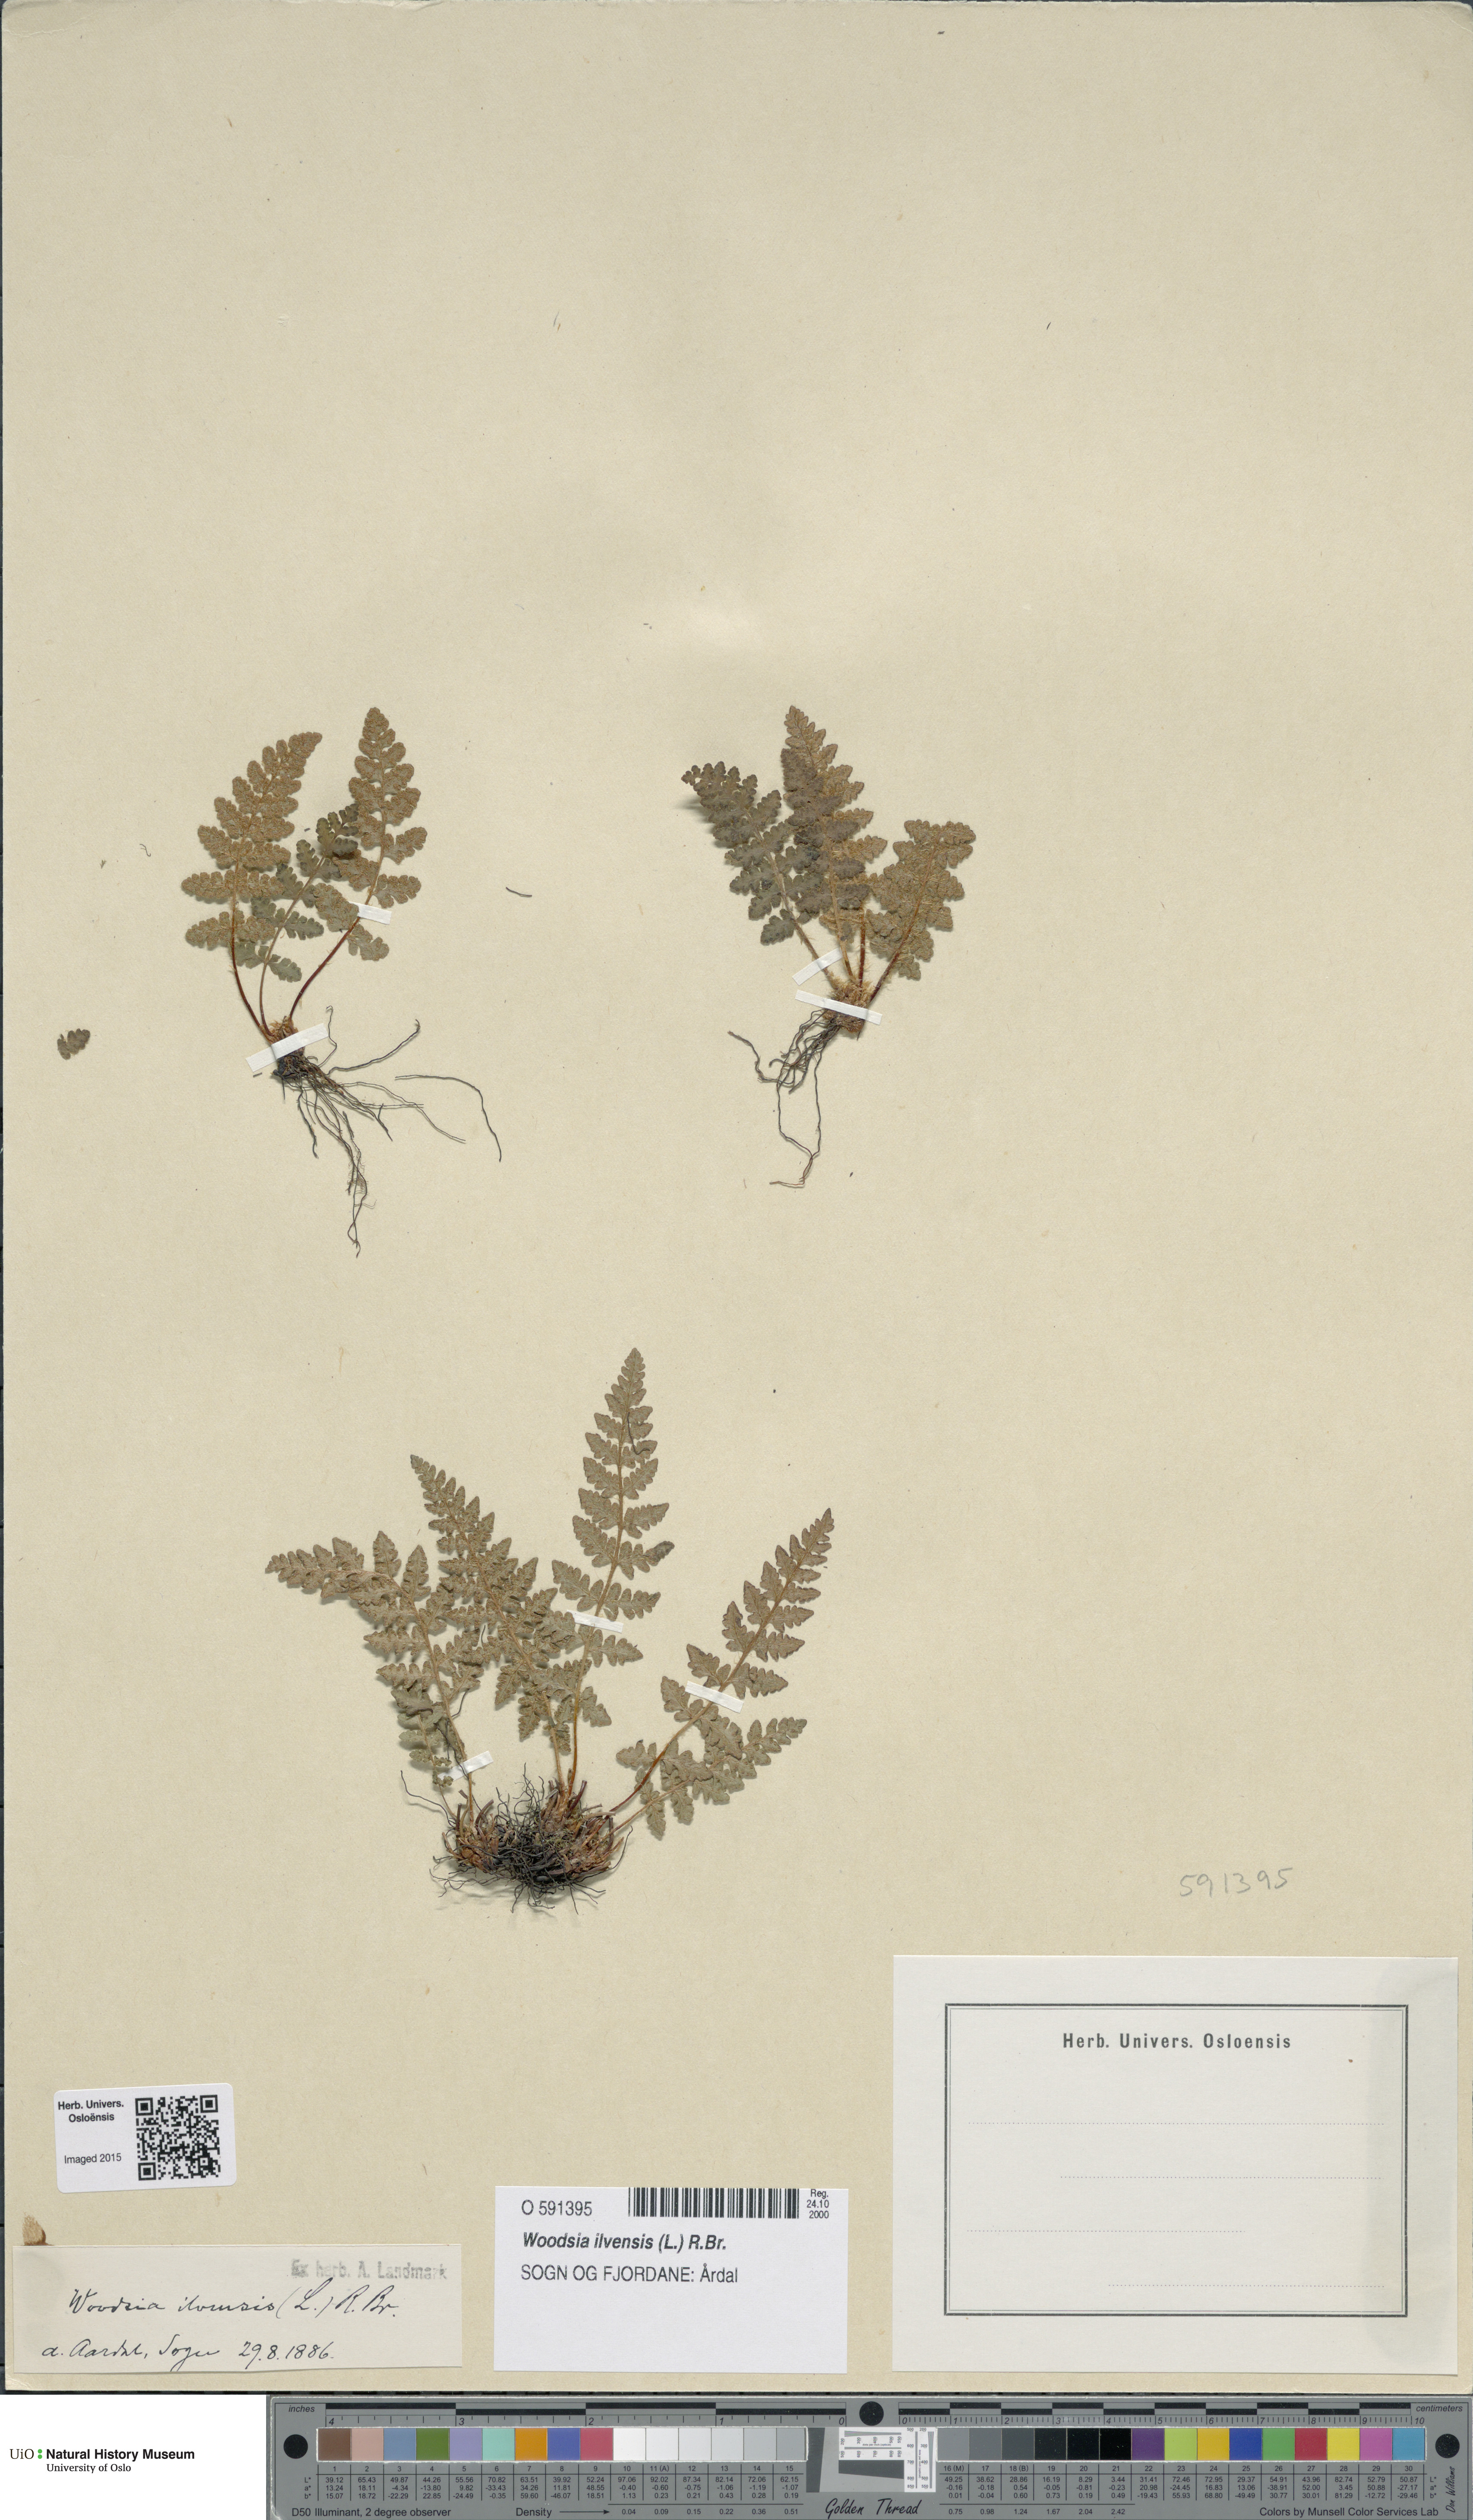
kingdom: Plantae
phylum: Tracheophyta
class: Polypodiopsida
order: Polypodiales
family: Woodsiaceae
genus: Woodsia
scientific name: Woodsia ilvensis
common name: Fragrant woodsia
